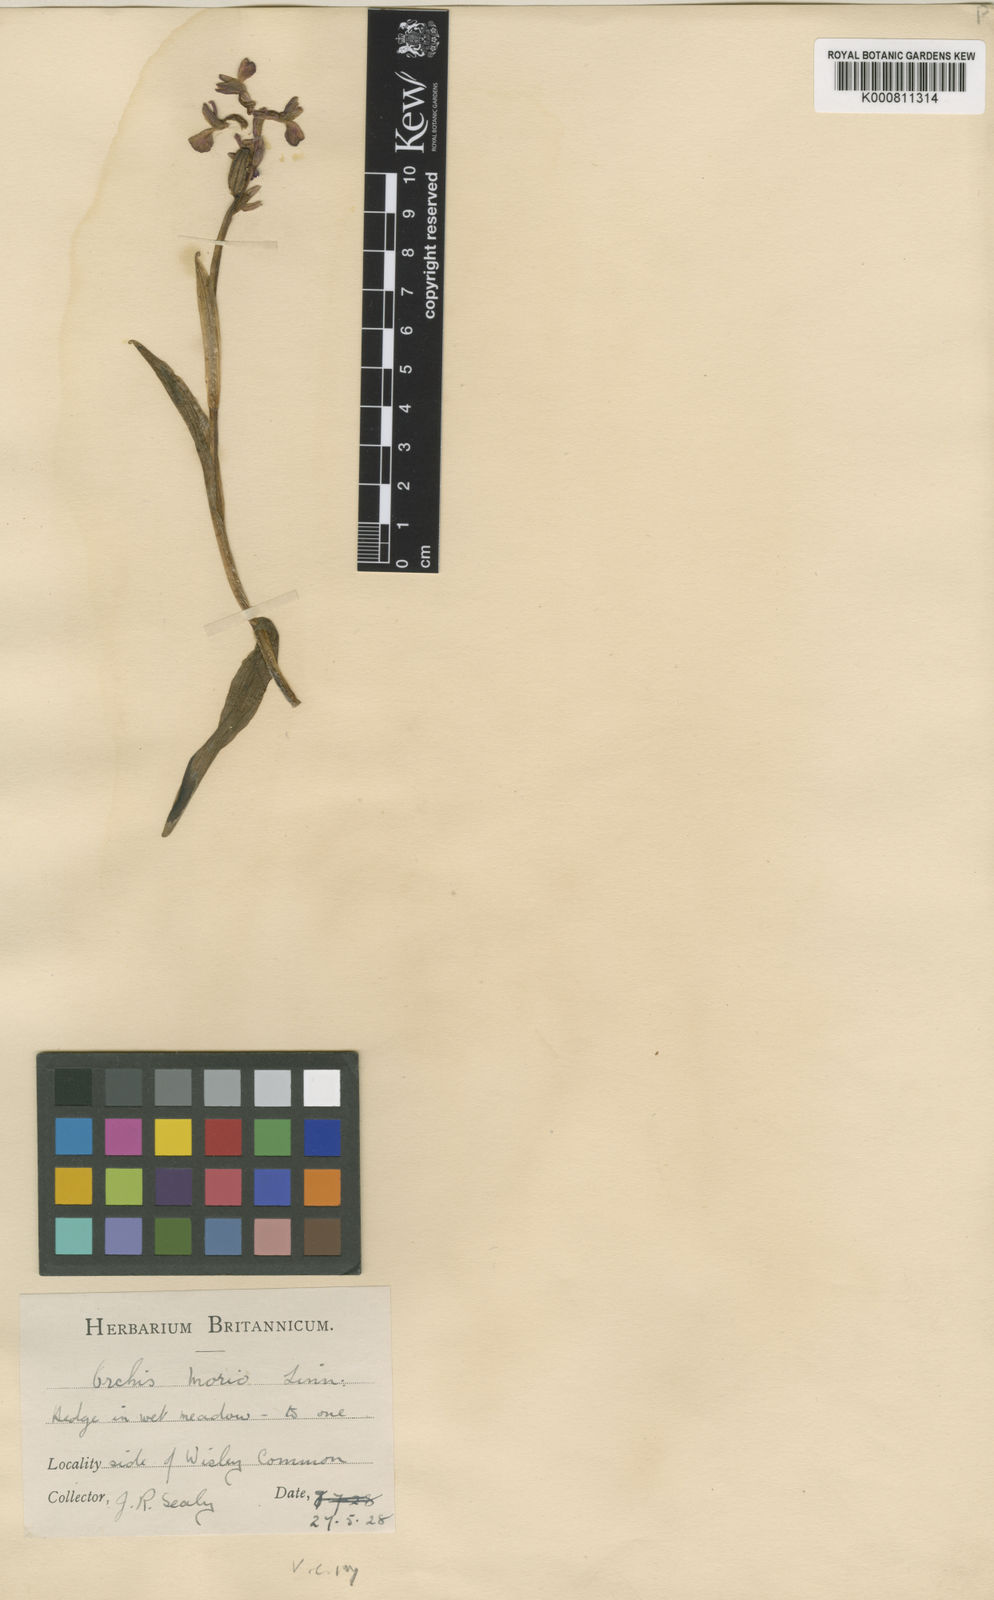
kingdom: Plantae
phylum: Tracheophyta
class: Liliopsida
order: Asparagales
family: Orchidaceae
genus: Anacamptis
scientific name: Anacamptis morio
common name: Green-winged orchid
